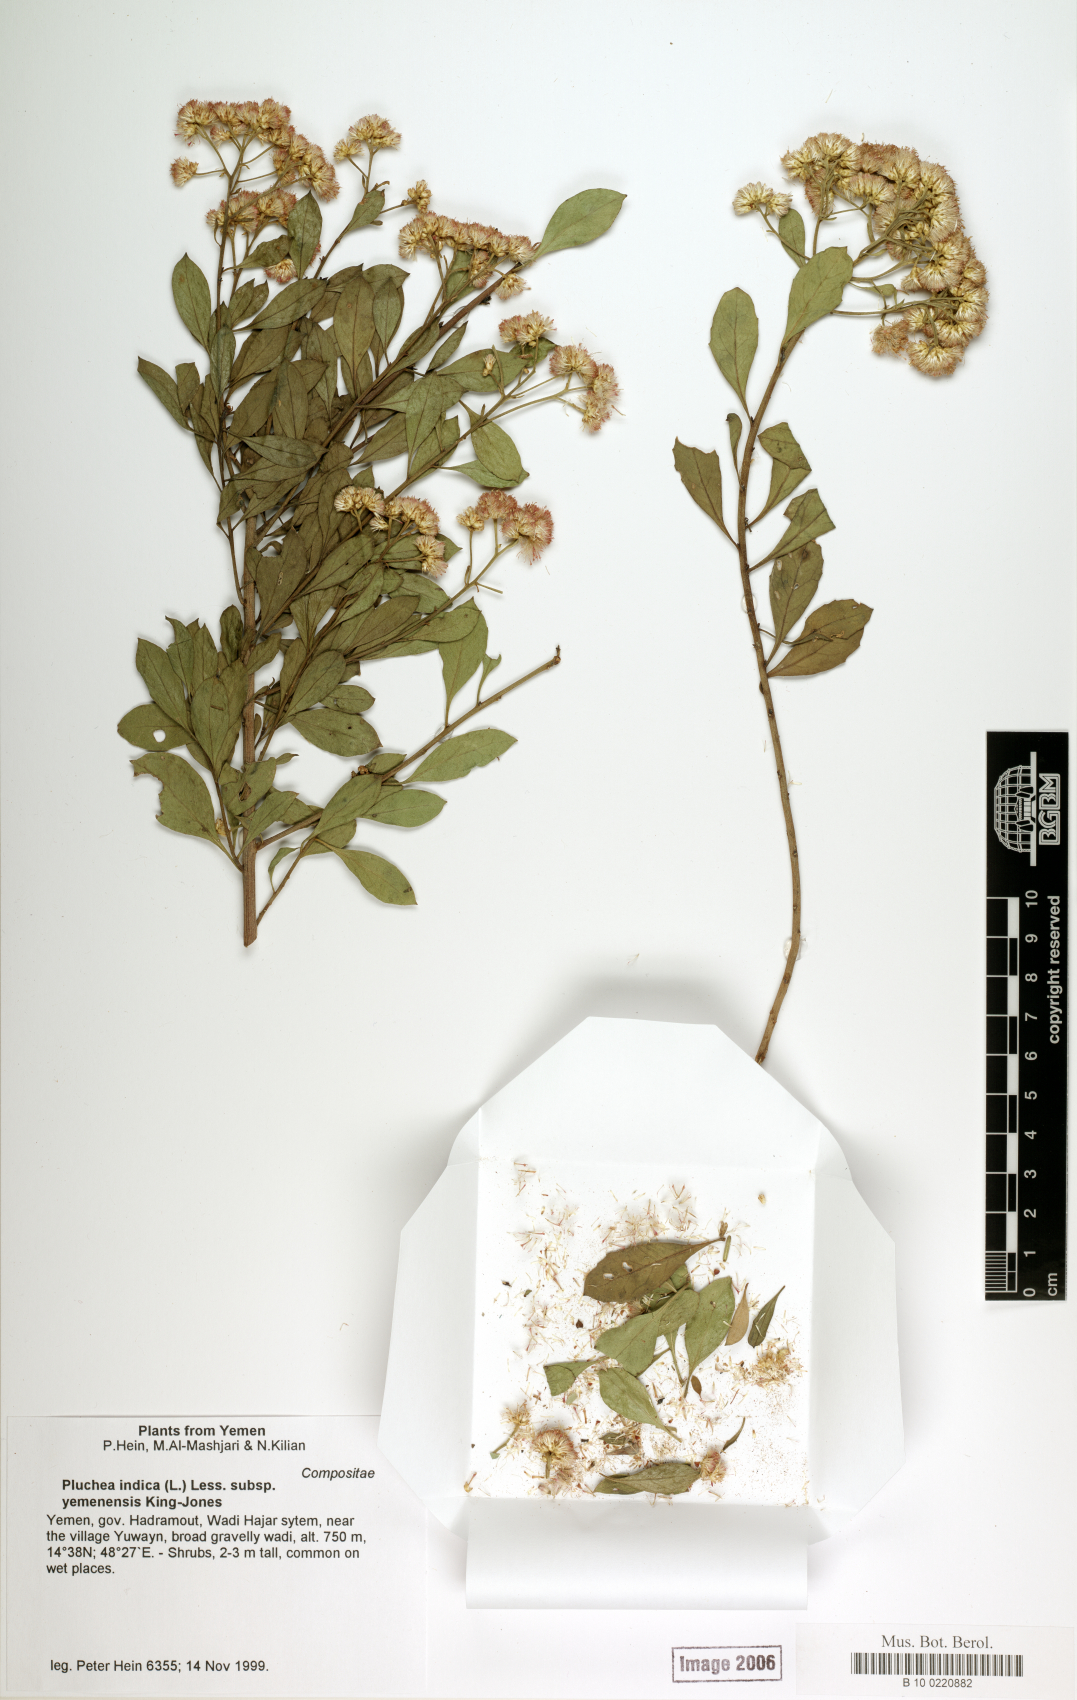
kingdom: Plantae
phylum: Tracheophyta
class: Magnoliopsida
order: Asterales
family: Asteraceae
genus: Pluchea
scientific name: Pluchea indica
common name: Indian fleabane
